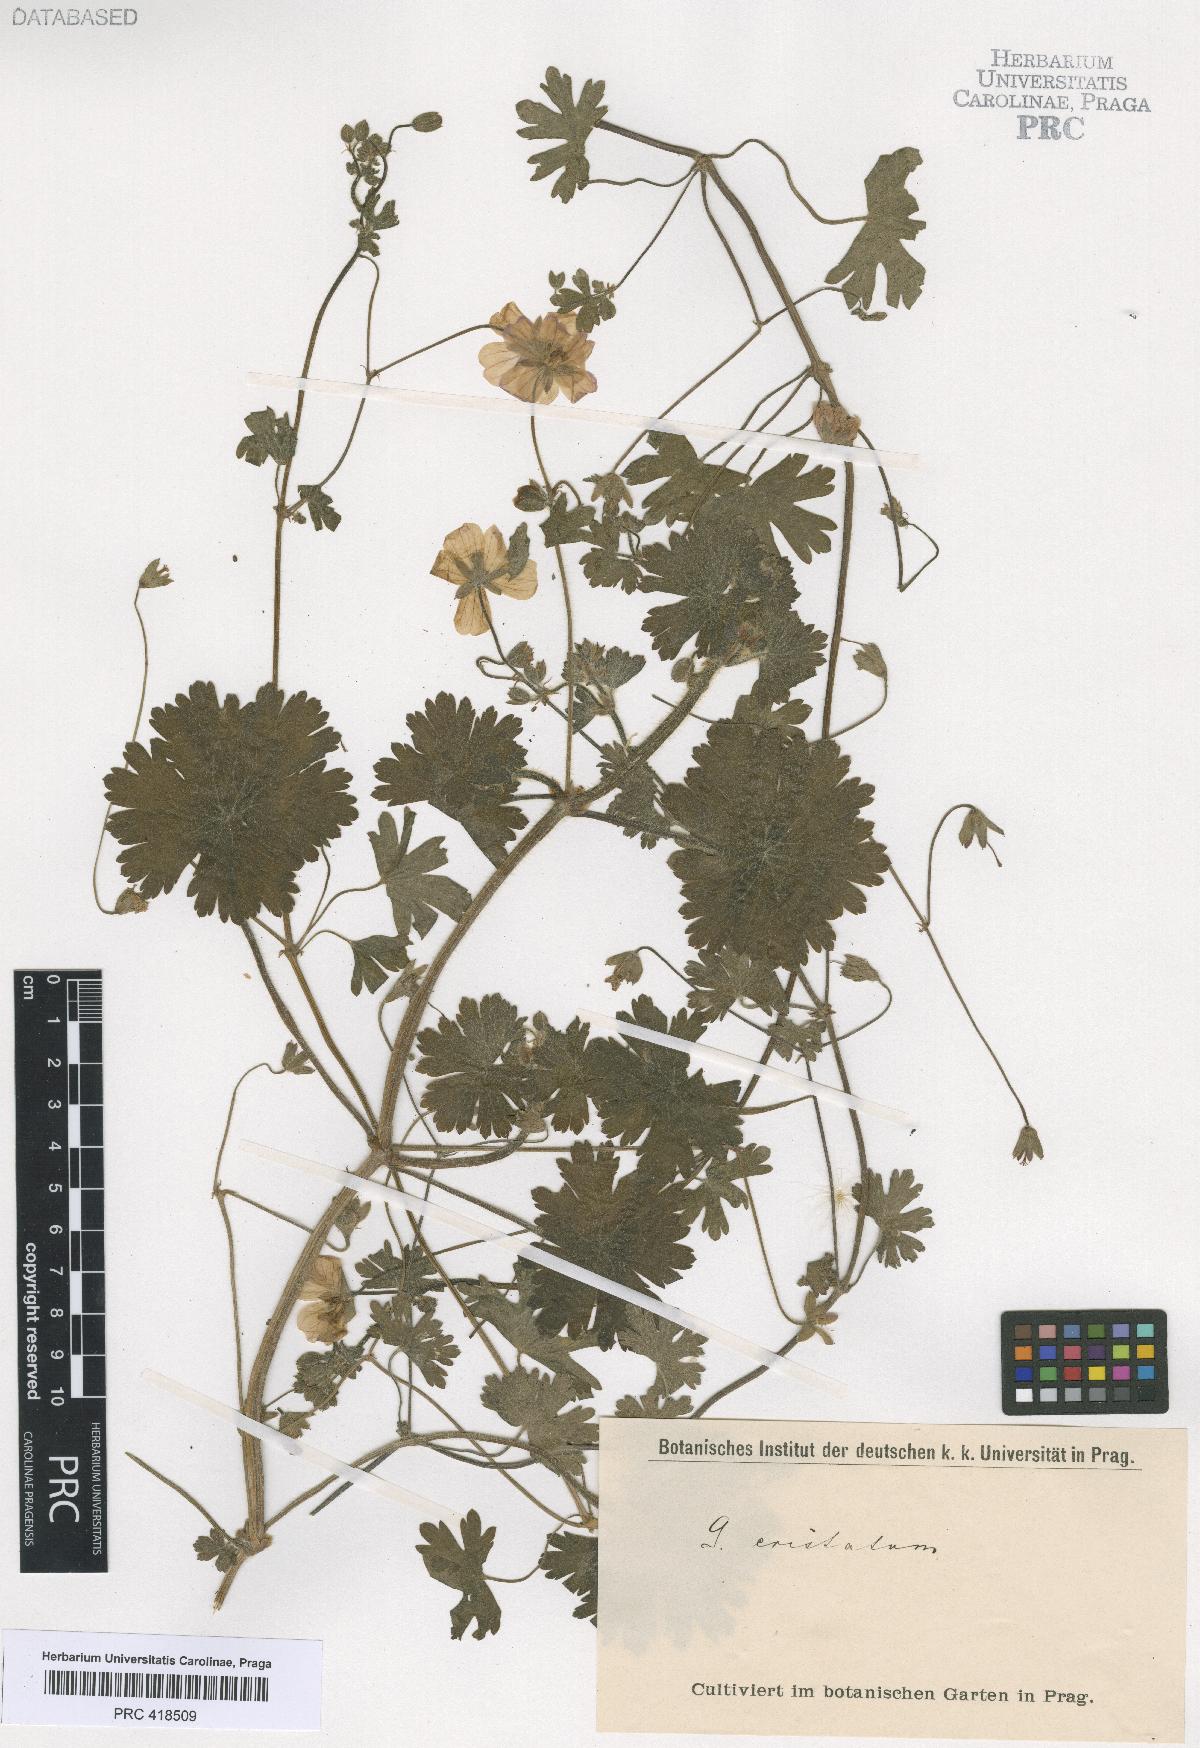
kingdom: Plantae
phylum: Tracheophyta
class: Magnoliopsida
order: Geraniales
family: Geraniaceae
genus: Geranium
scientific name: Geranium
